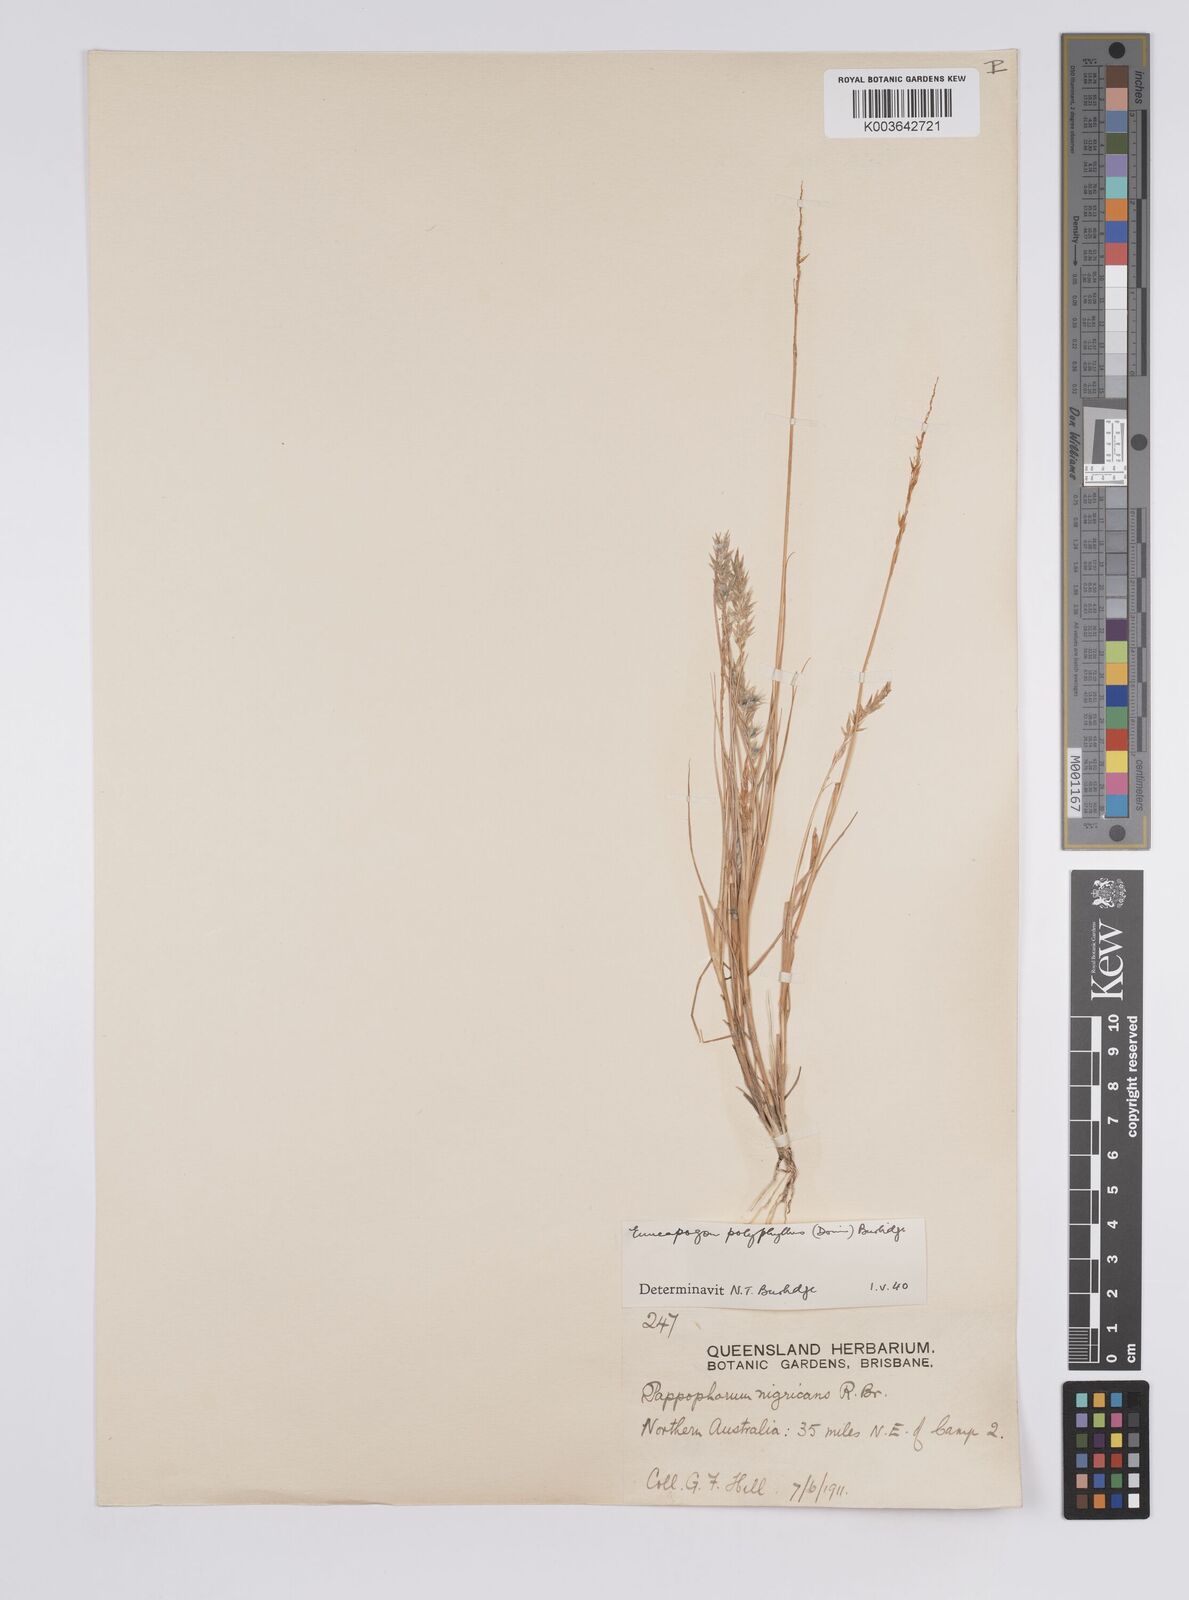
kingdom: Plantae
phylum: Tracheophyta
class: Liliopsida
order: Poales
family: Poaceae
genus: Enneapogon
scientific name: Enneapogon polyphyllus
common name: Leafy nineawn
